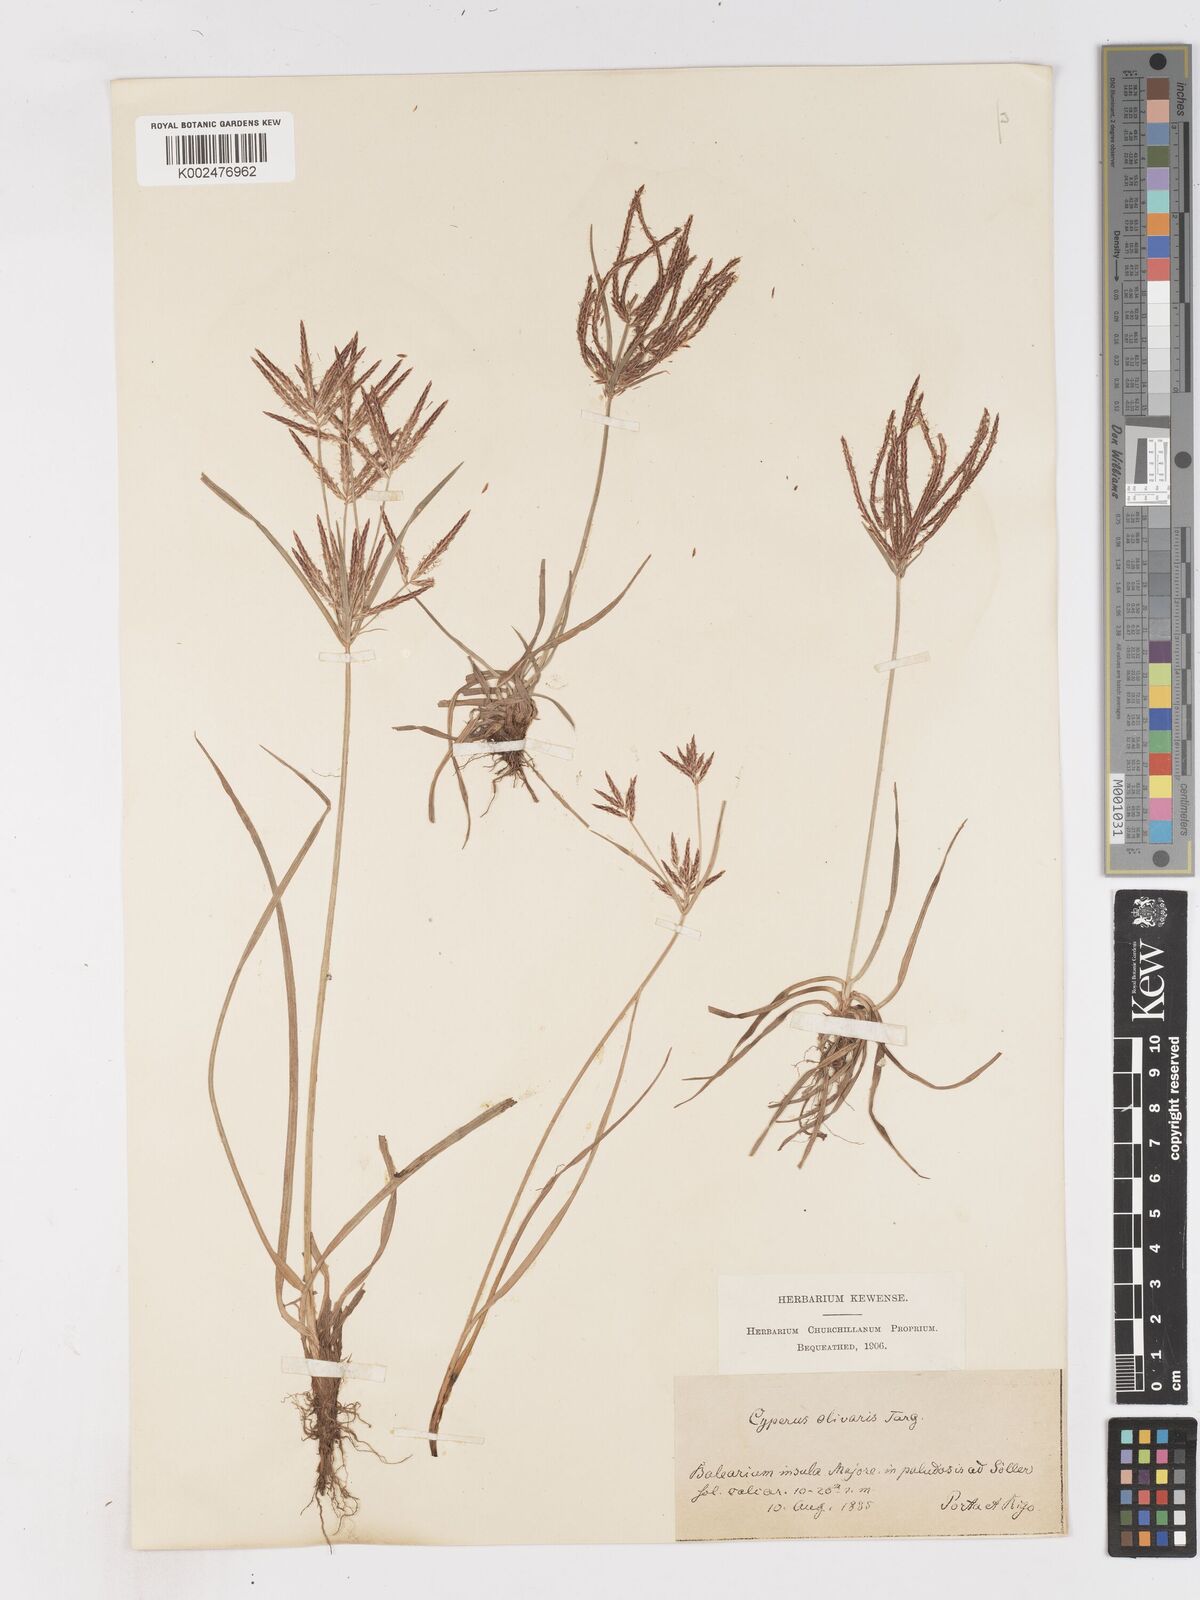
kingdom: Plantae
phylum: Tracheophyta
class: Liliopsida
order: Poales
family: Cyperaceae
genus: Cyperus
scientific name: Cyperus rotundus
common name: Nutgrass
